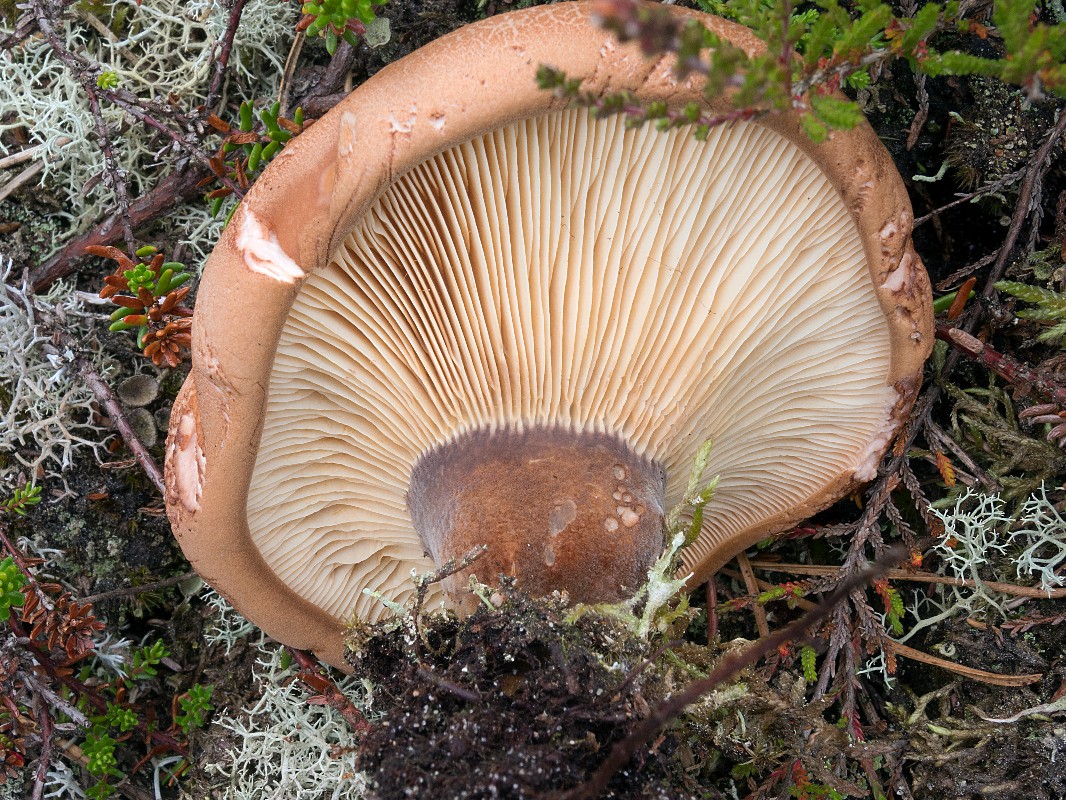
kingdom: Fungi
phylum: Basidiomycota
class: Agaricomycetes
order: Boletales
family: Tapinellaceae
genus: Tapinella
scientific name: Tapinella atrotomentosa
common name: sortfiltet viftesvamp
